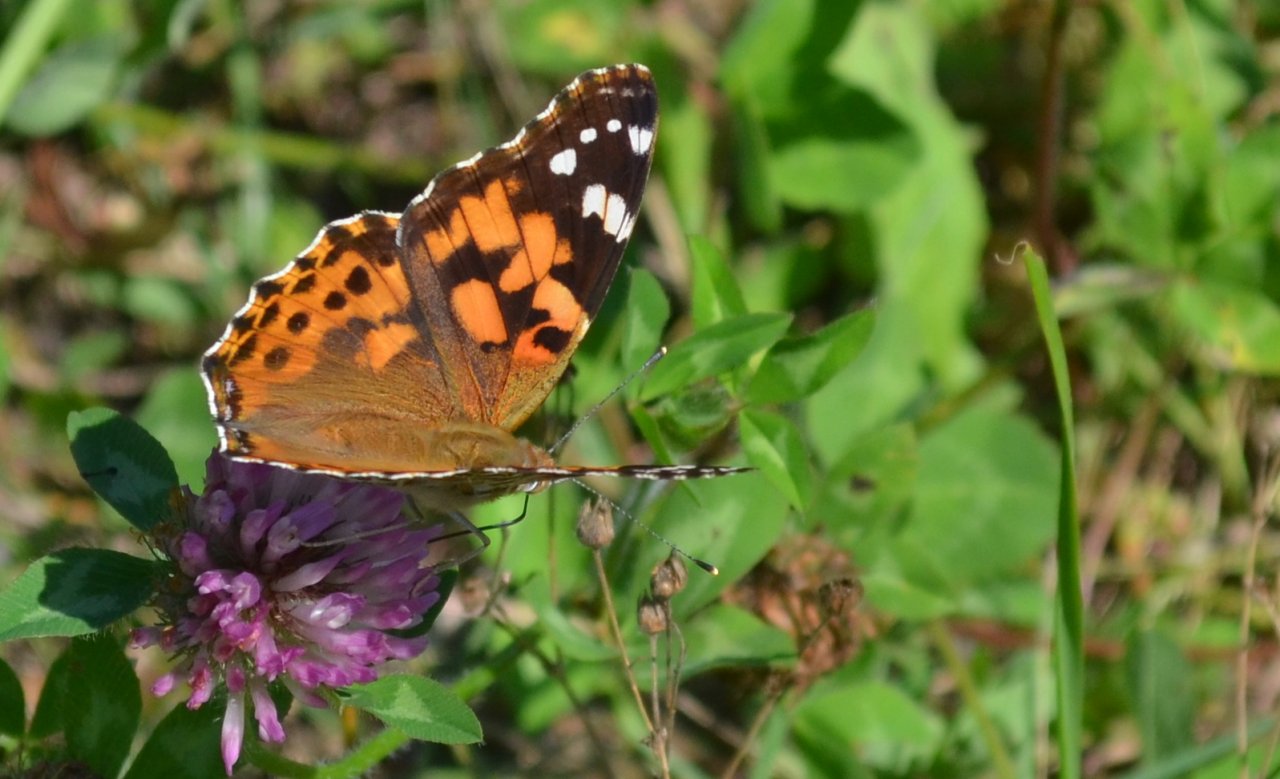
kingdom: Animalia
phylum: Arthropoda
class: Insecta
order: Lepidoptera
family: Nymphalidae
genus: Vanessa
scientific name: Vanessa cardui
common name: Painted Lady
